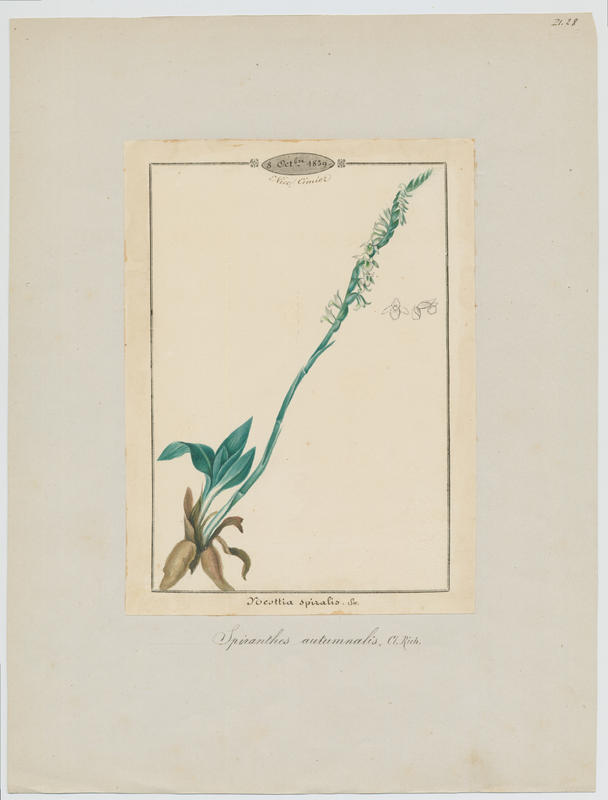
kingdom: Plantae
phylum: Tracheophyta
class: Liliopsida
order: Asparagales
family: Orchidaceae
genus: Spiranthes
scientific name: Spiranthes spiralis
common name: Autumn lady's-tresses
